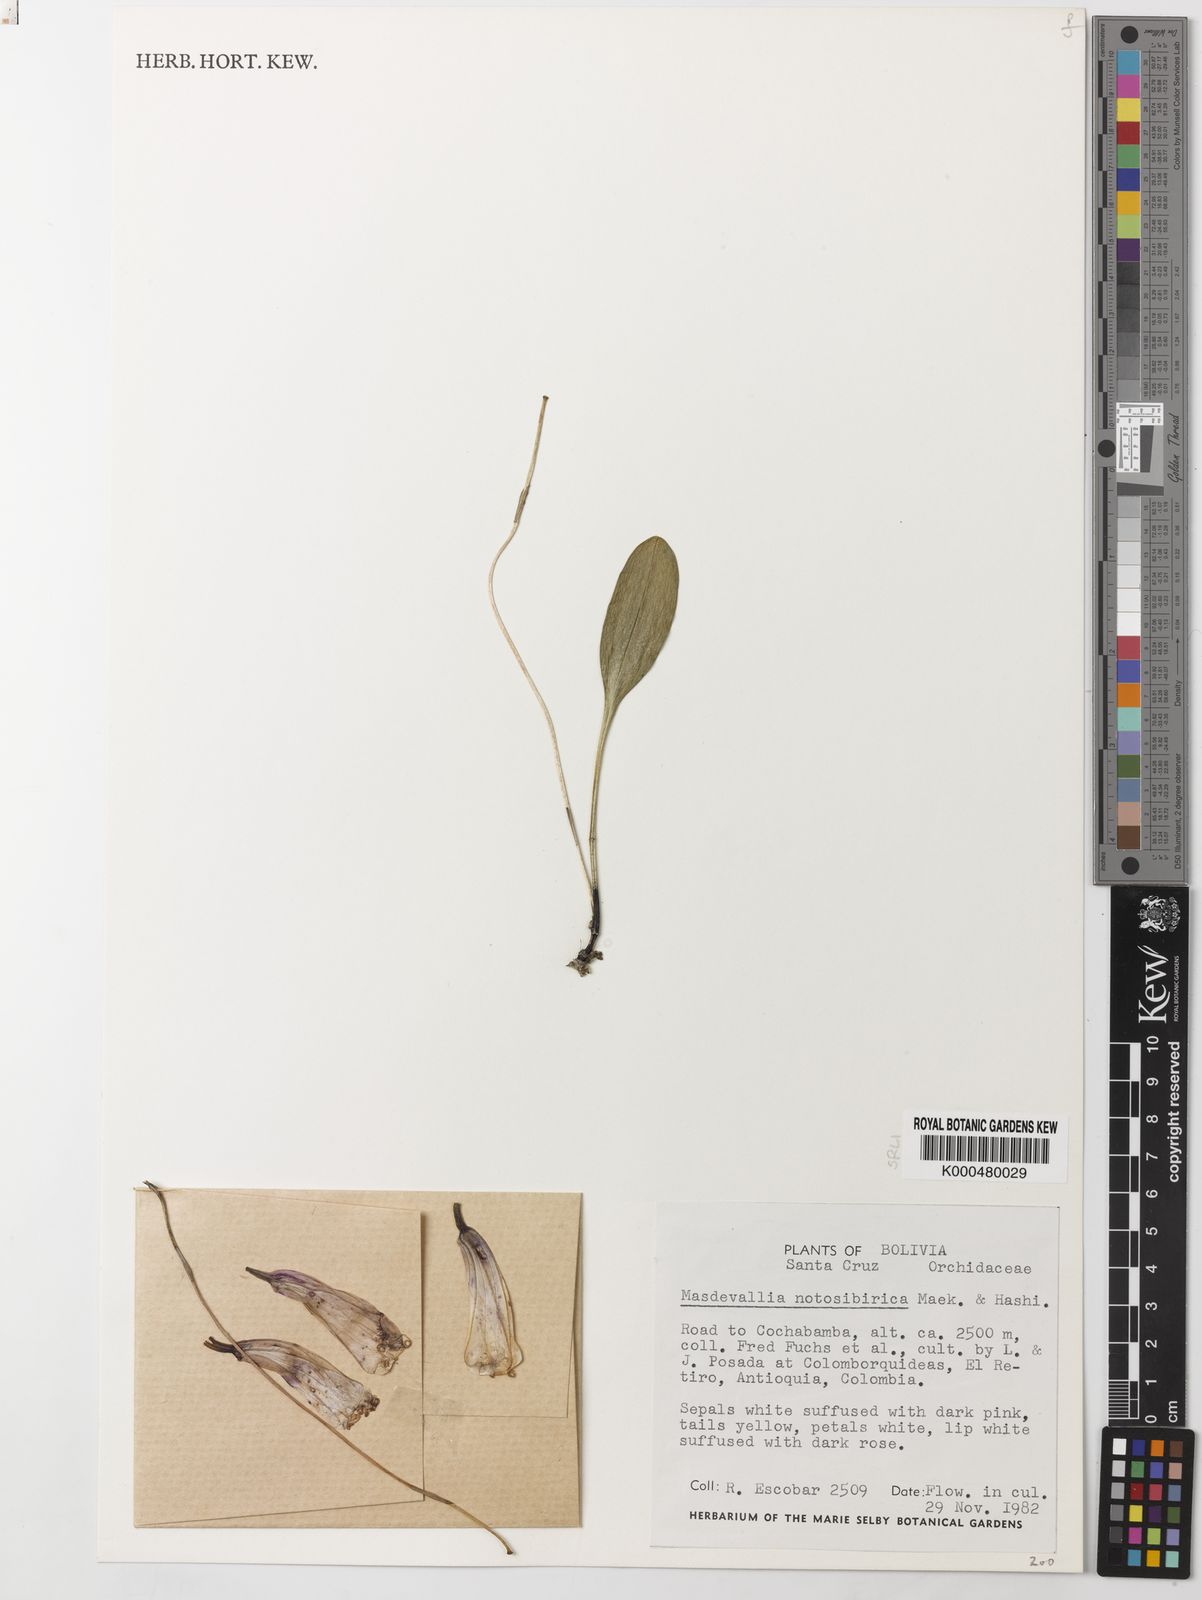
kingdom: Plantae
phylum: Tracheophyta
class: Liliopsida
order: Asparagales
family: Orchidaceae
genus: Masdevallia
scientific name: Masdevallia notosibirica
